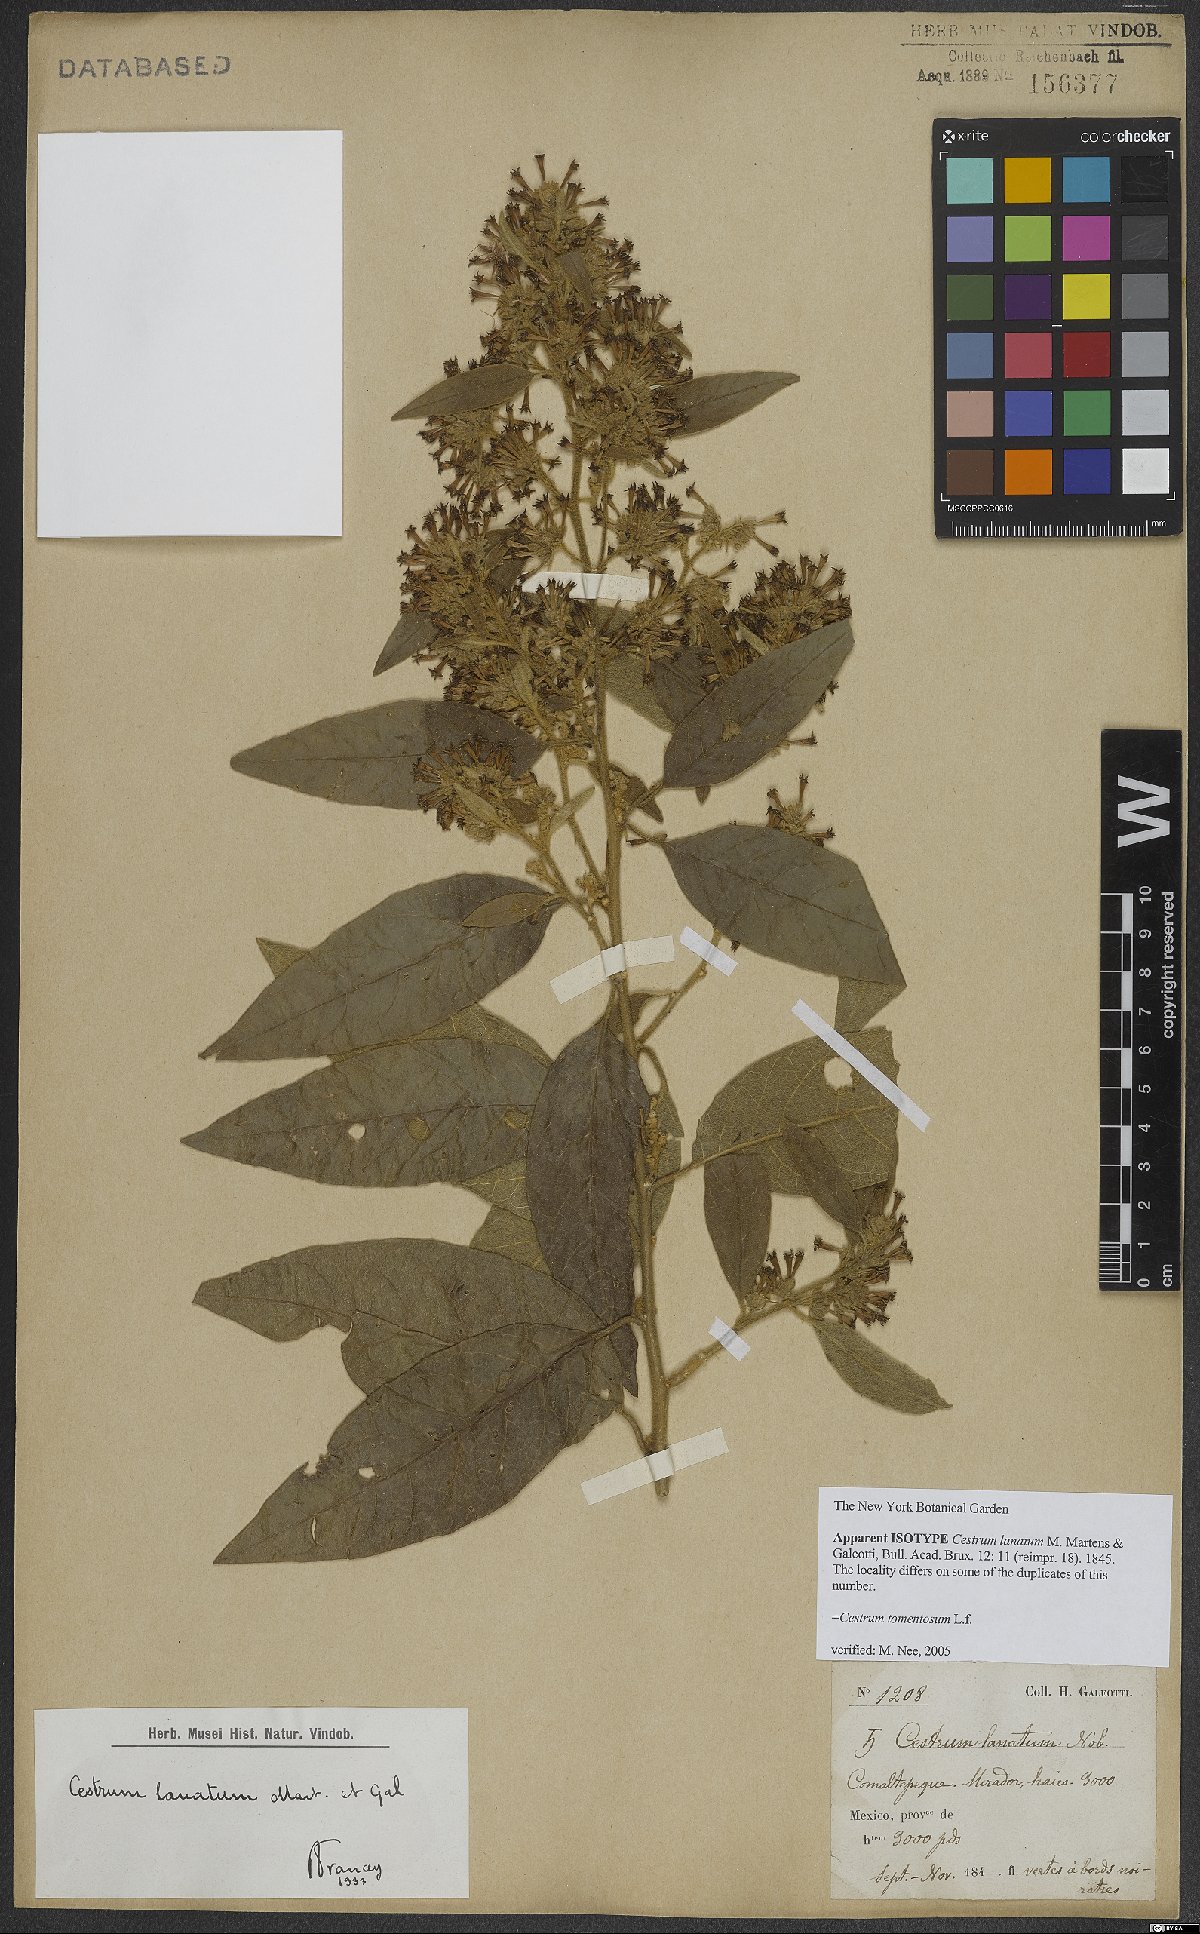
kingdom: Plantae
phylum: Tracheophyta
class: Magnoliopsida
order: Solanales
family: Solanaceae
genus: Cestrum
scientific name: Cestrum tomentosum
